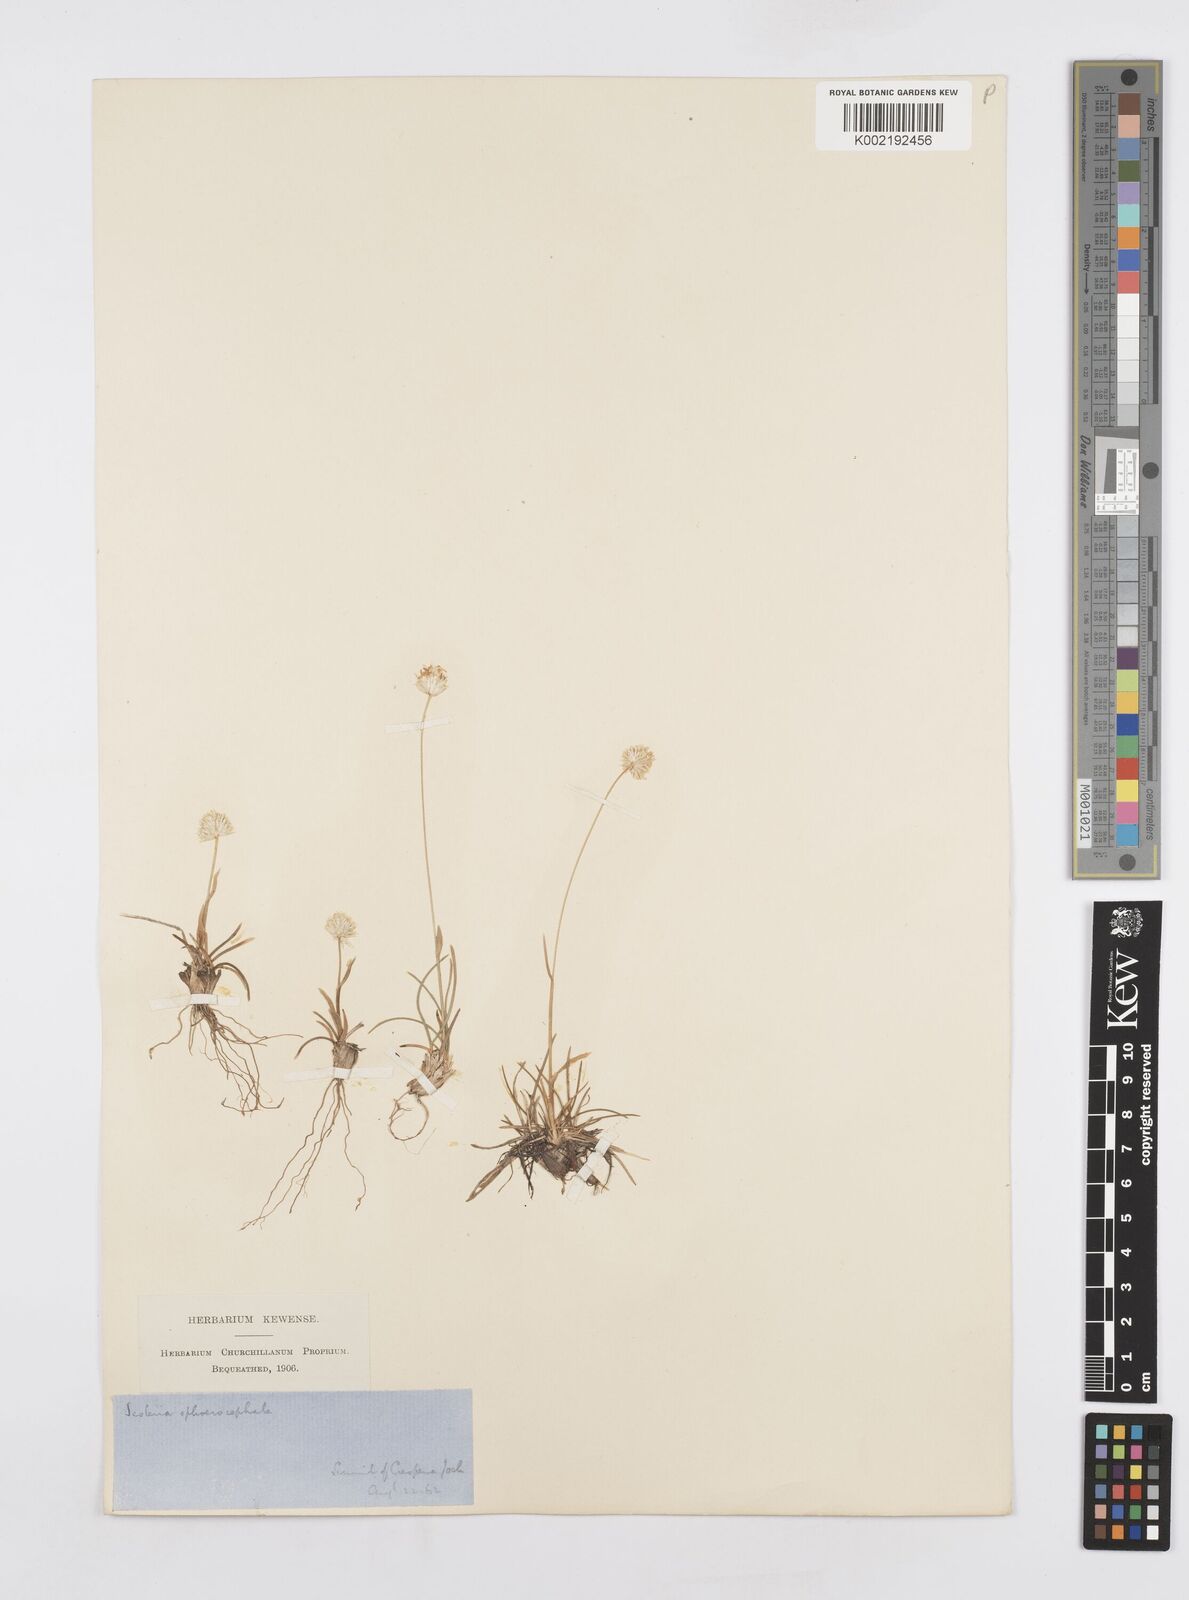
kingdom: Plantae
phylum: Tracheophyta
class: Liliopsida
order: Poales
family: Poaceae
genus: Sesleriella
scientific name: Sesleriella sphaerocephala
